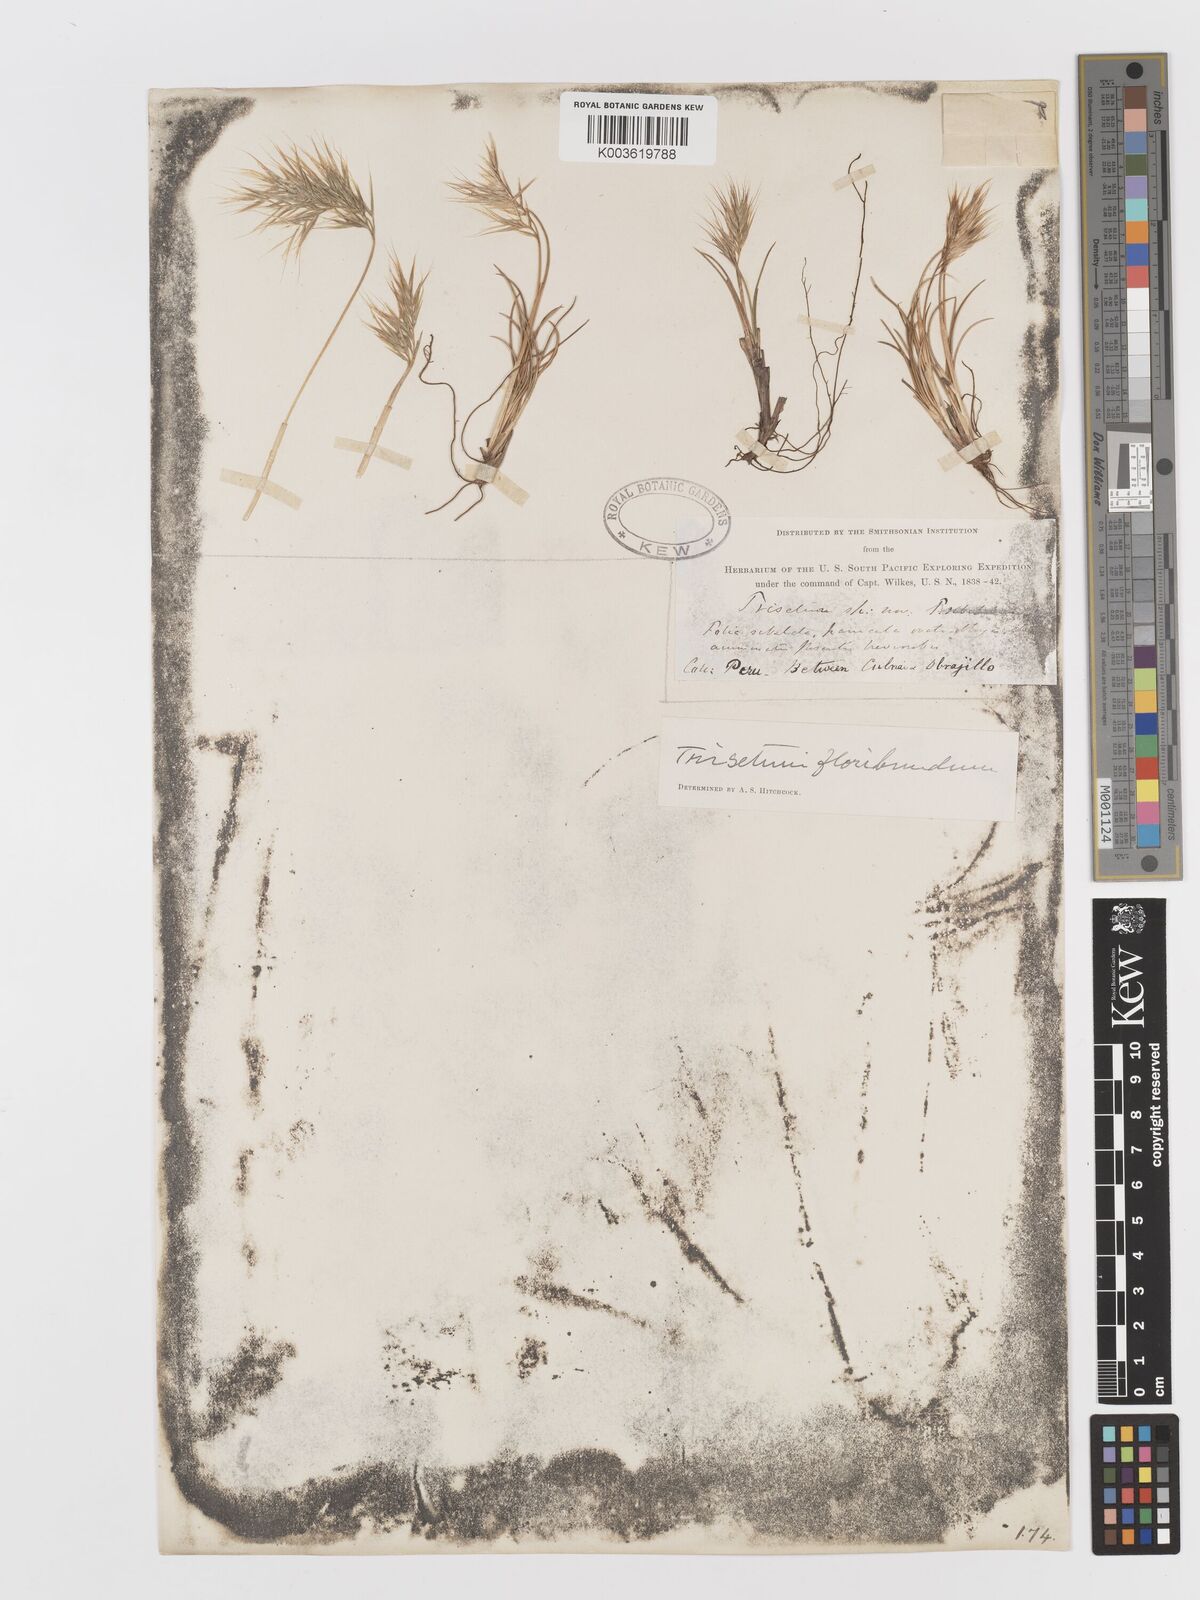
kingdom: Plantae
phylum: Tracheophyta
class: Liliopsida
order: Poales
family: Poaceae
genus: Festuca
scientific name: Festuca floribunda
